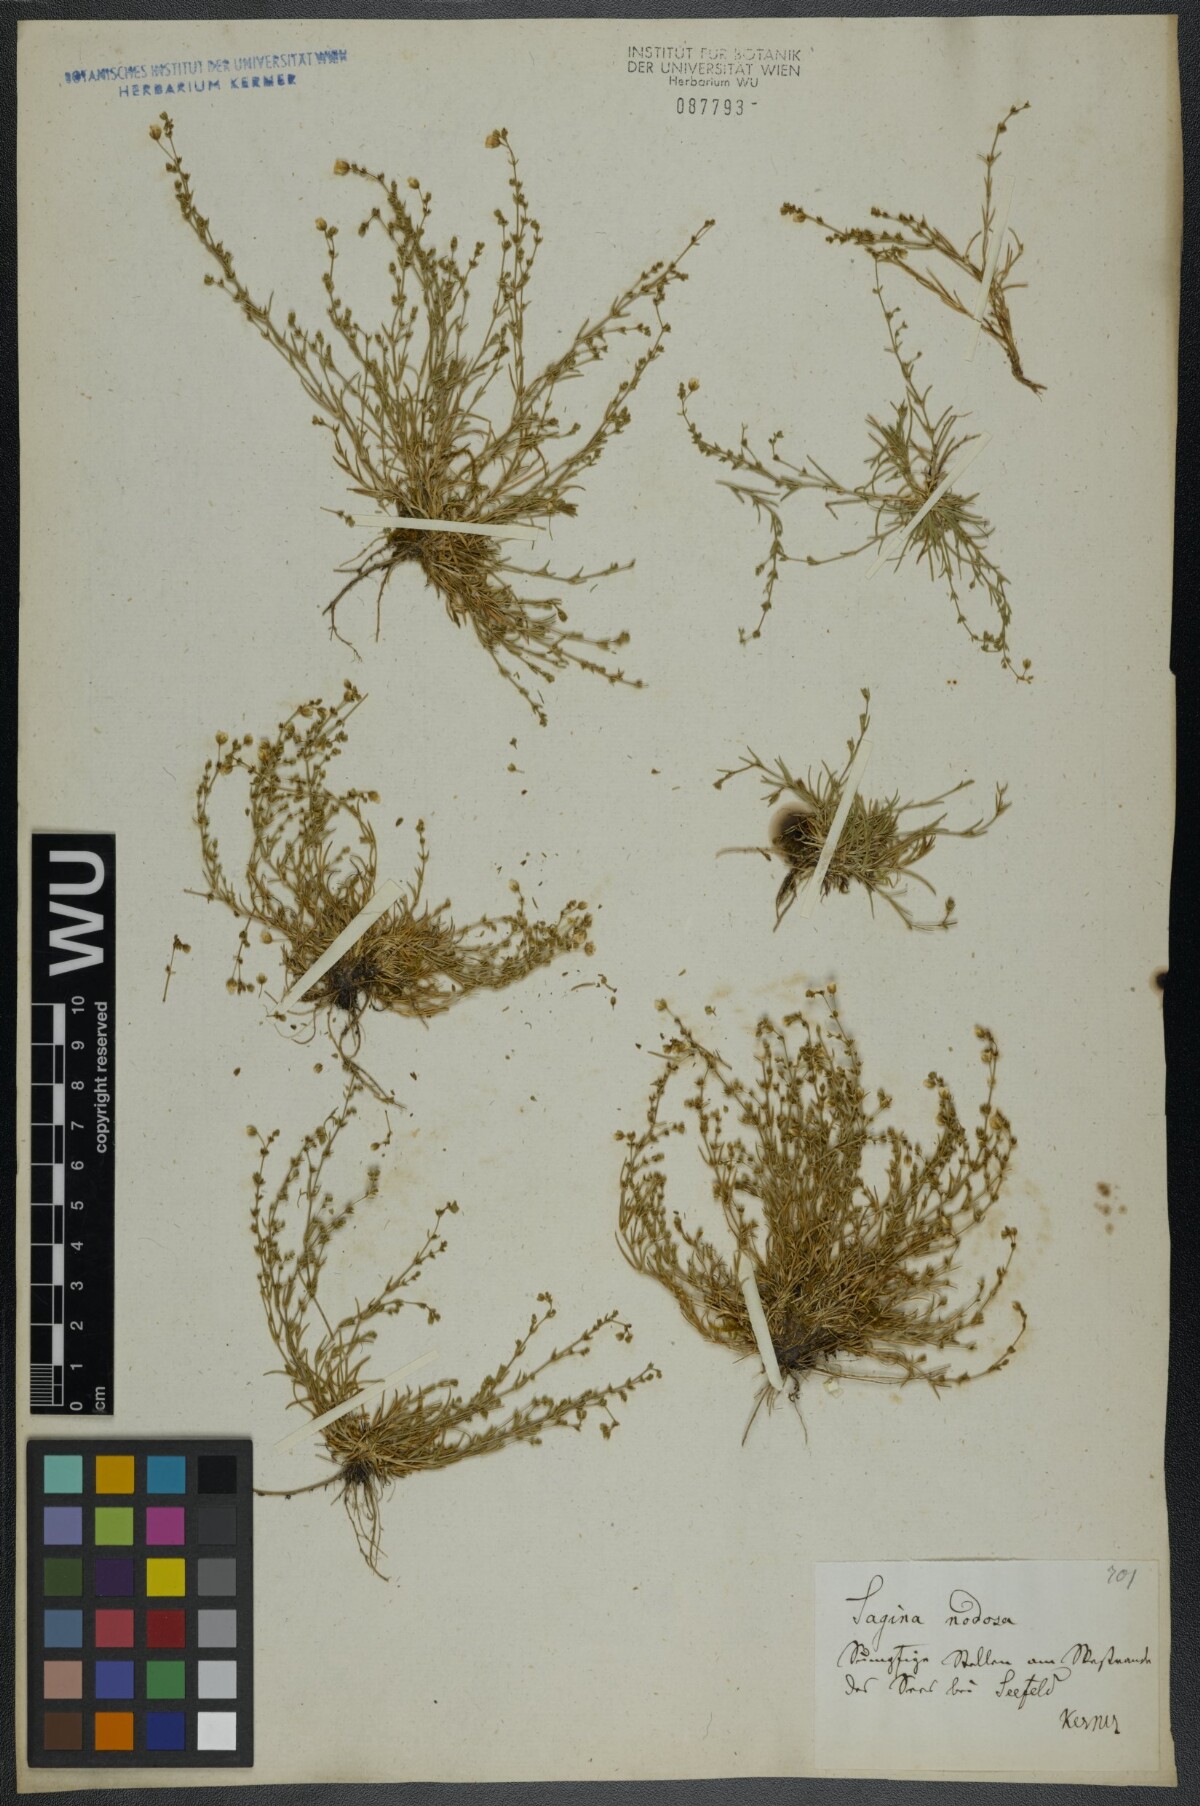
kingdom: Plantae
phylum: Tracheophyta
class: Magnoliopsida
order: Caryophyllales
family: Caryophyllaceae
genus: Sagina
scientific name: Sagina nodosa
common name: Knotted pearlwort
